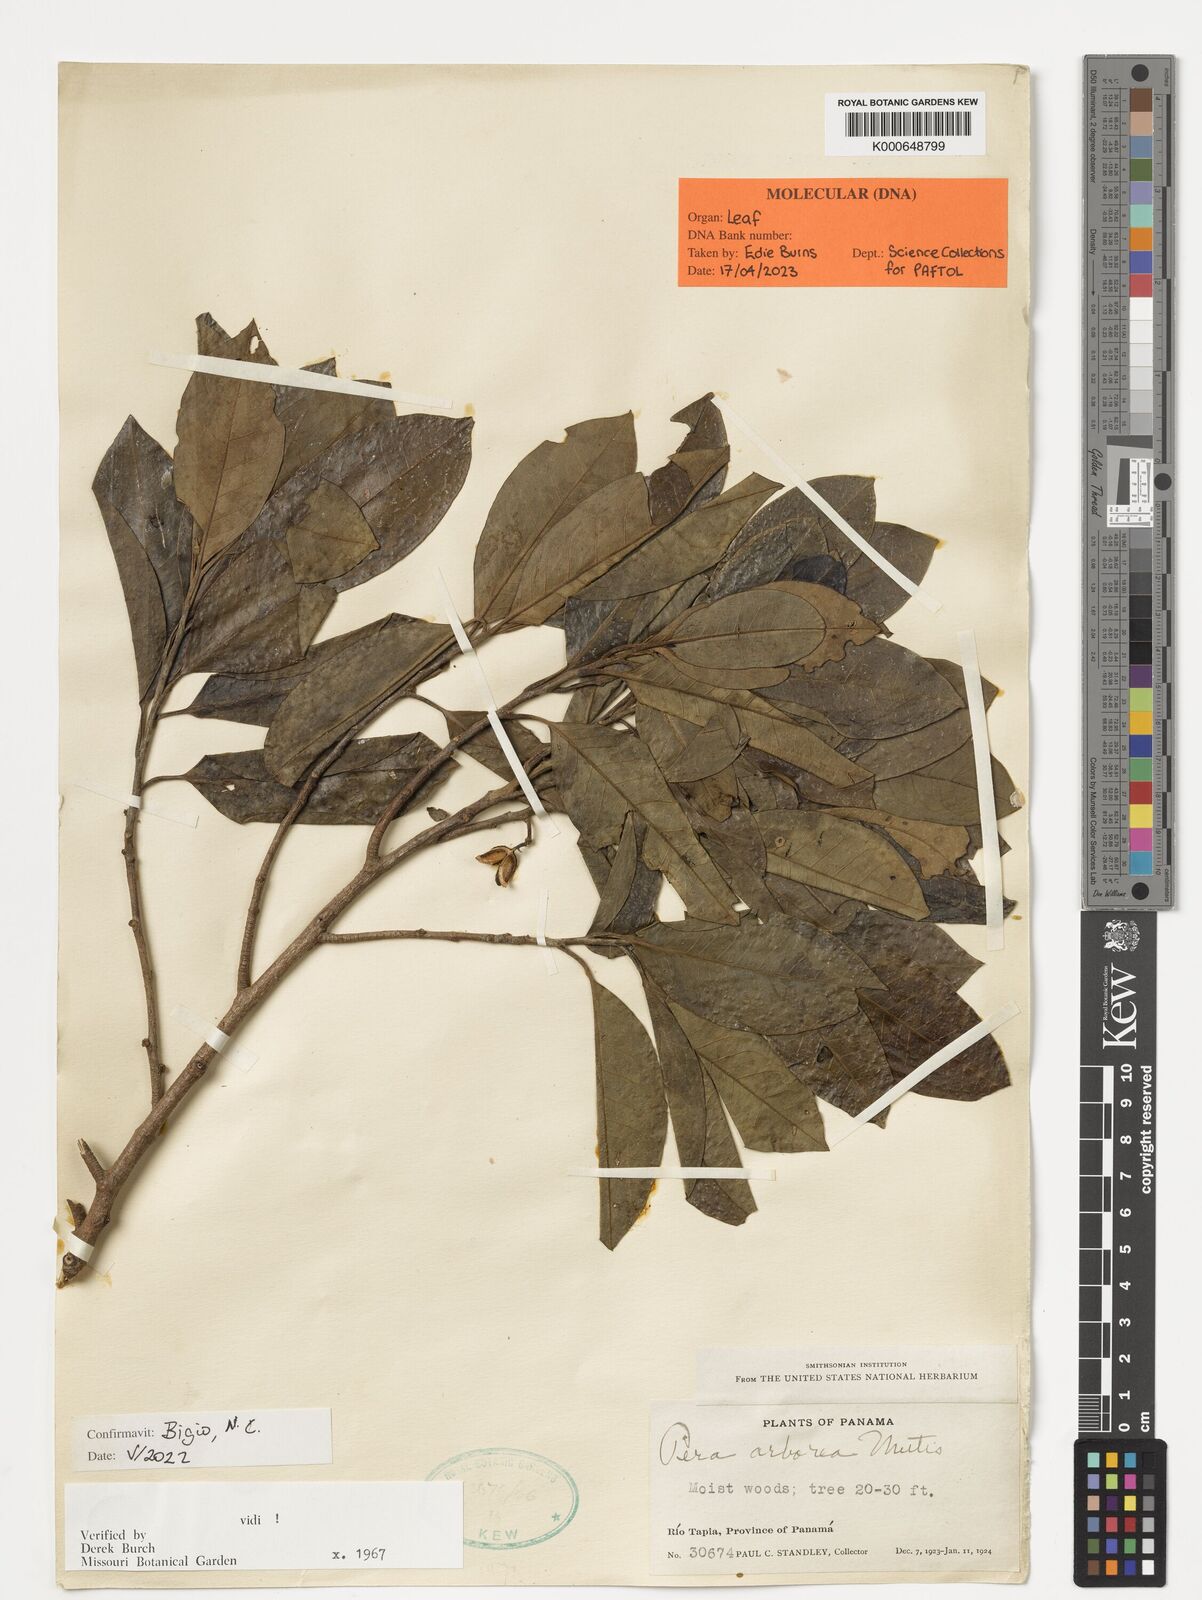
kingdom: Plantae
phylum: Tracheophyta
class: Magnoliopsida
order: Malpighiales
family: Peraceae
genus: Pera
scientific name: Pera arborea
